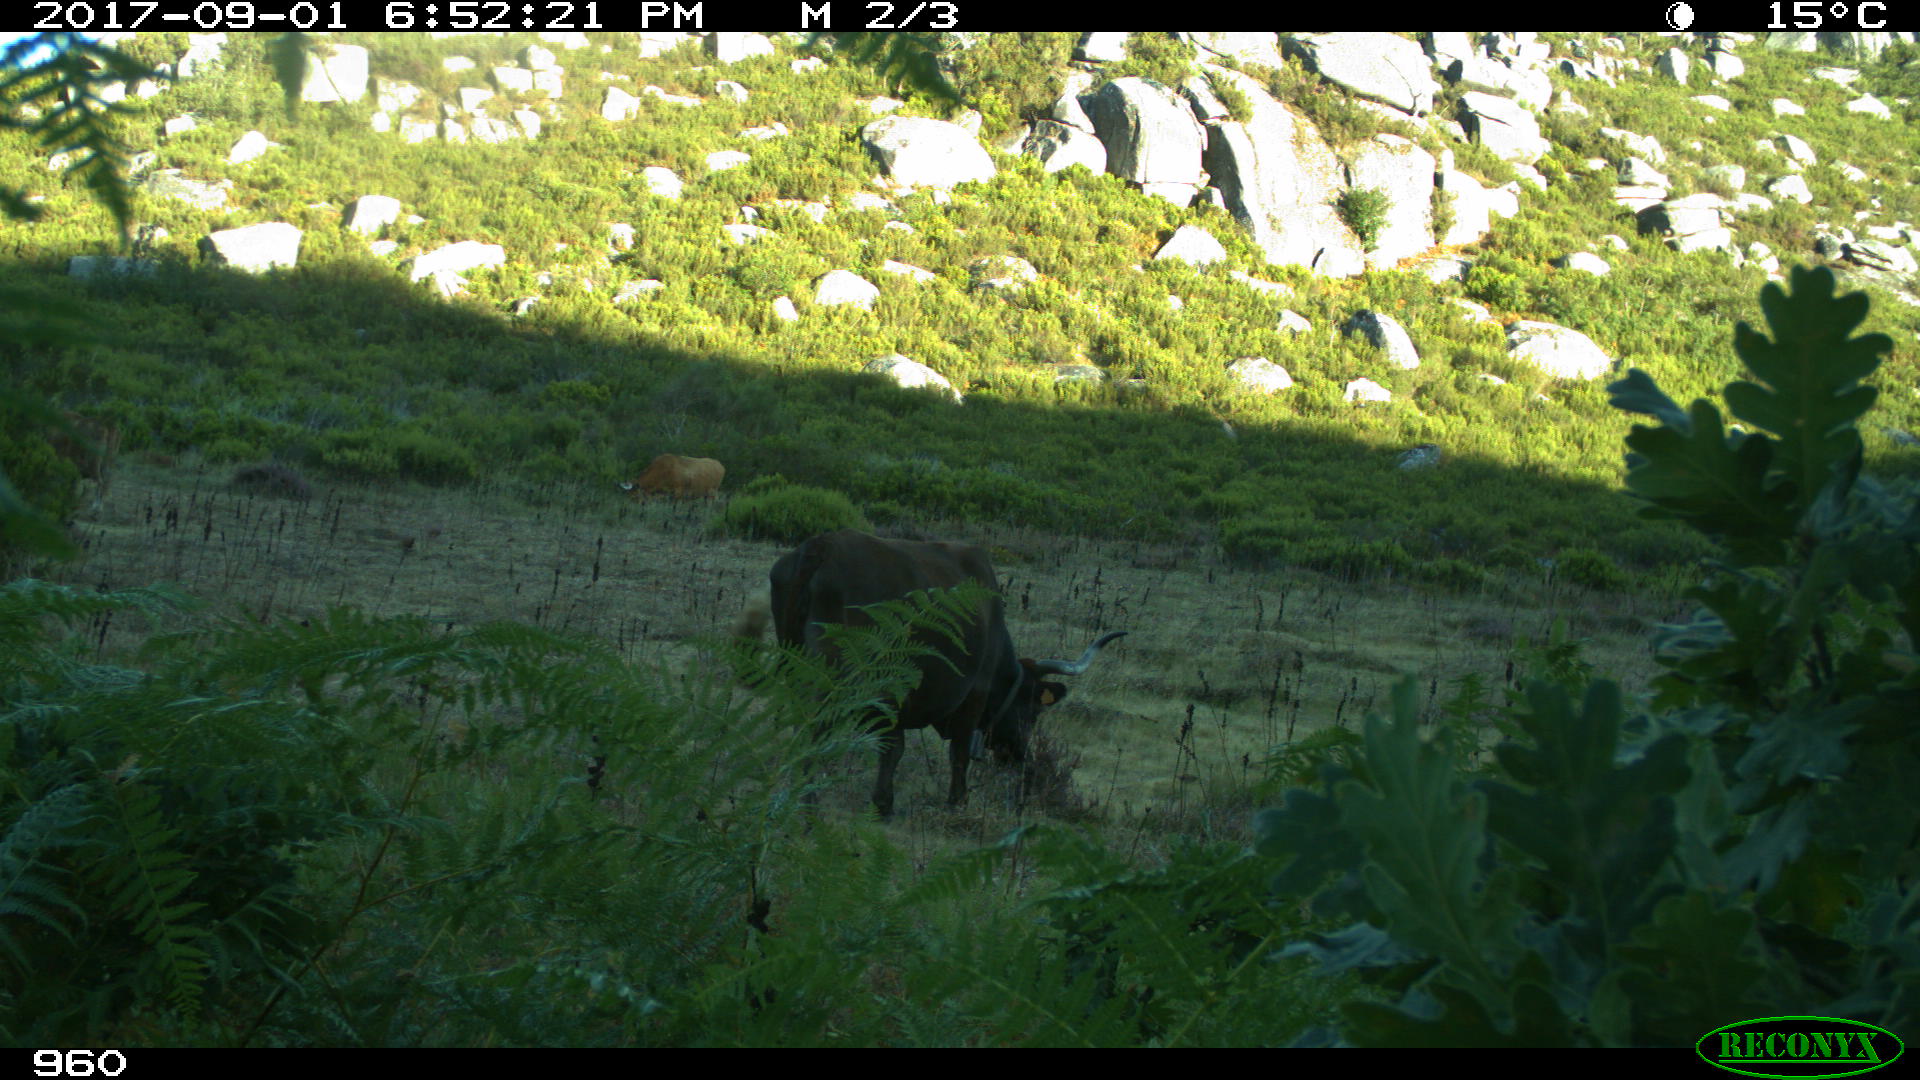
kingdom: Animalia
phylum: Chordata
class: Mammalia
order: Artiodactyla
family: Bovidae
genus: Bos
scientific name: Bos taurus
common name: Domesticated cattle
